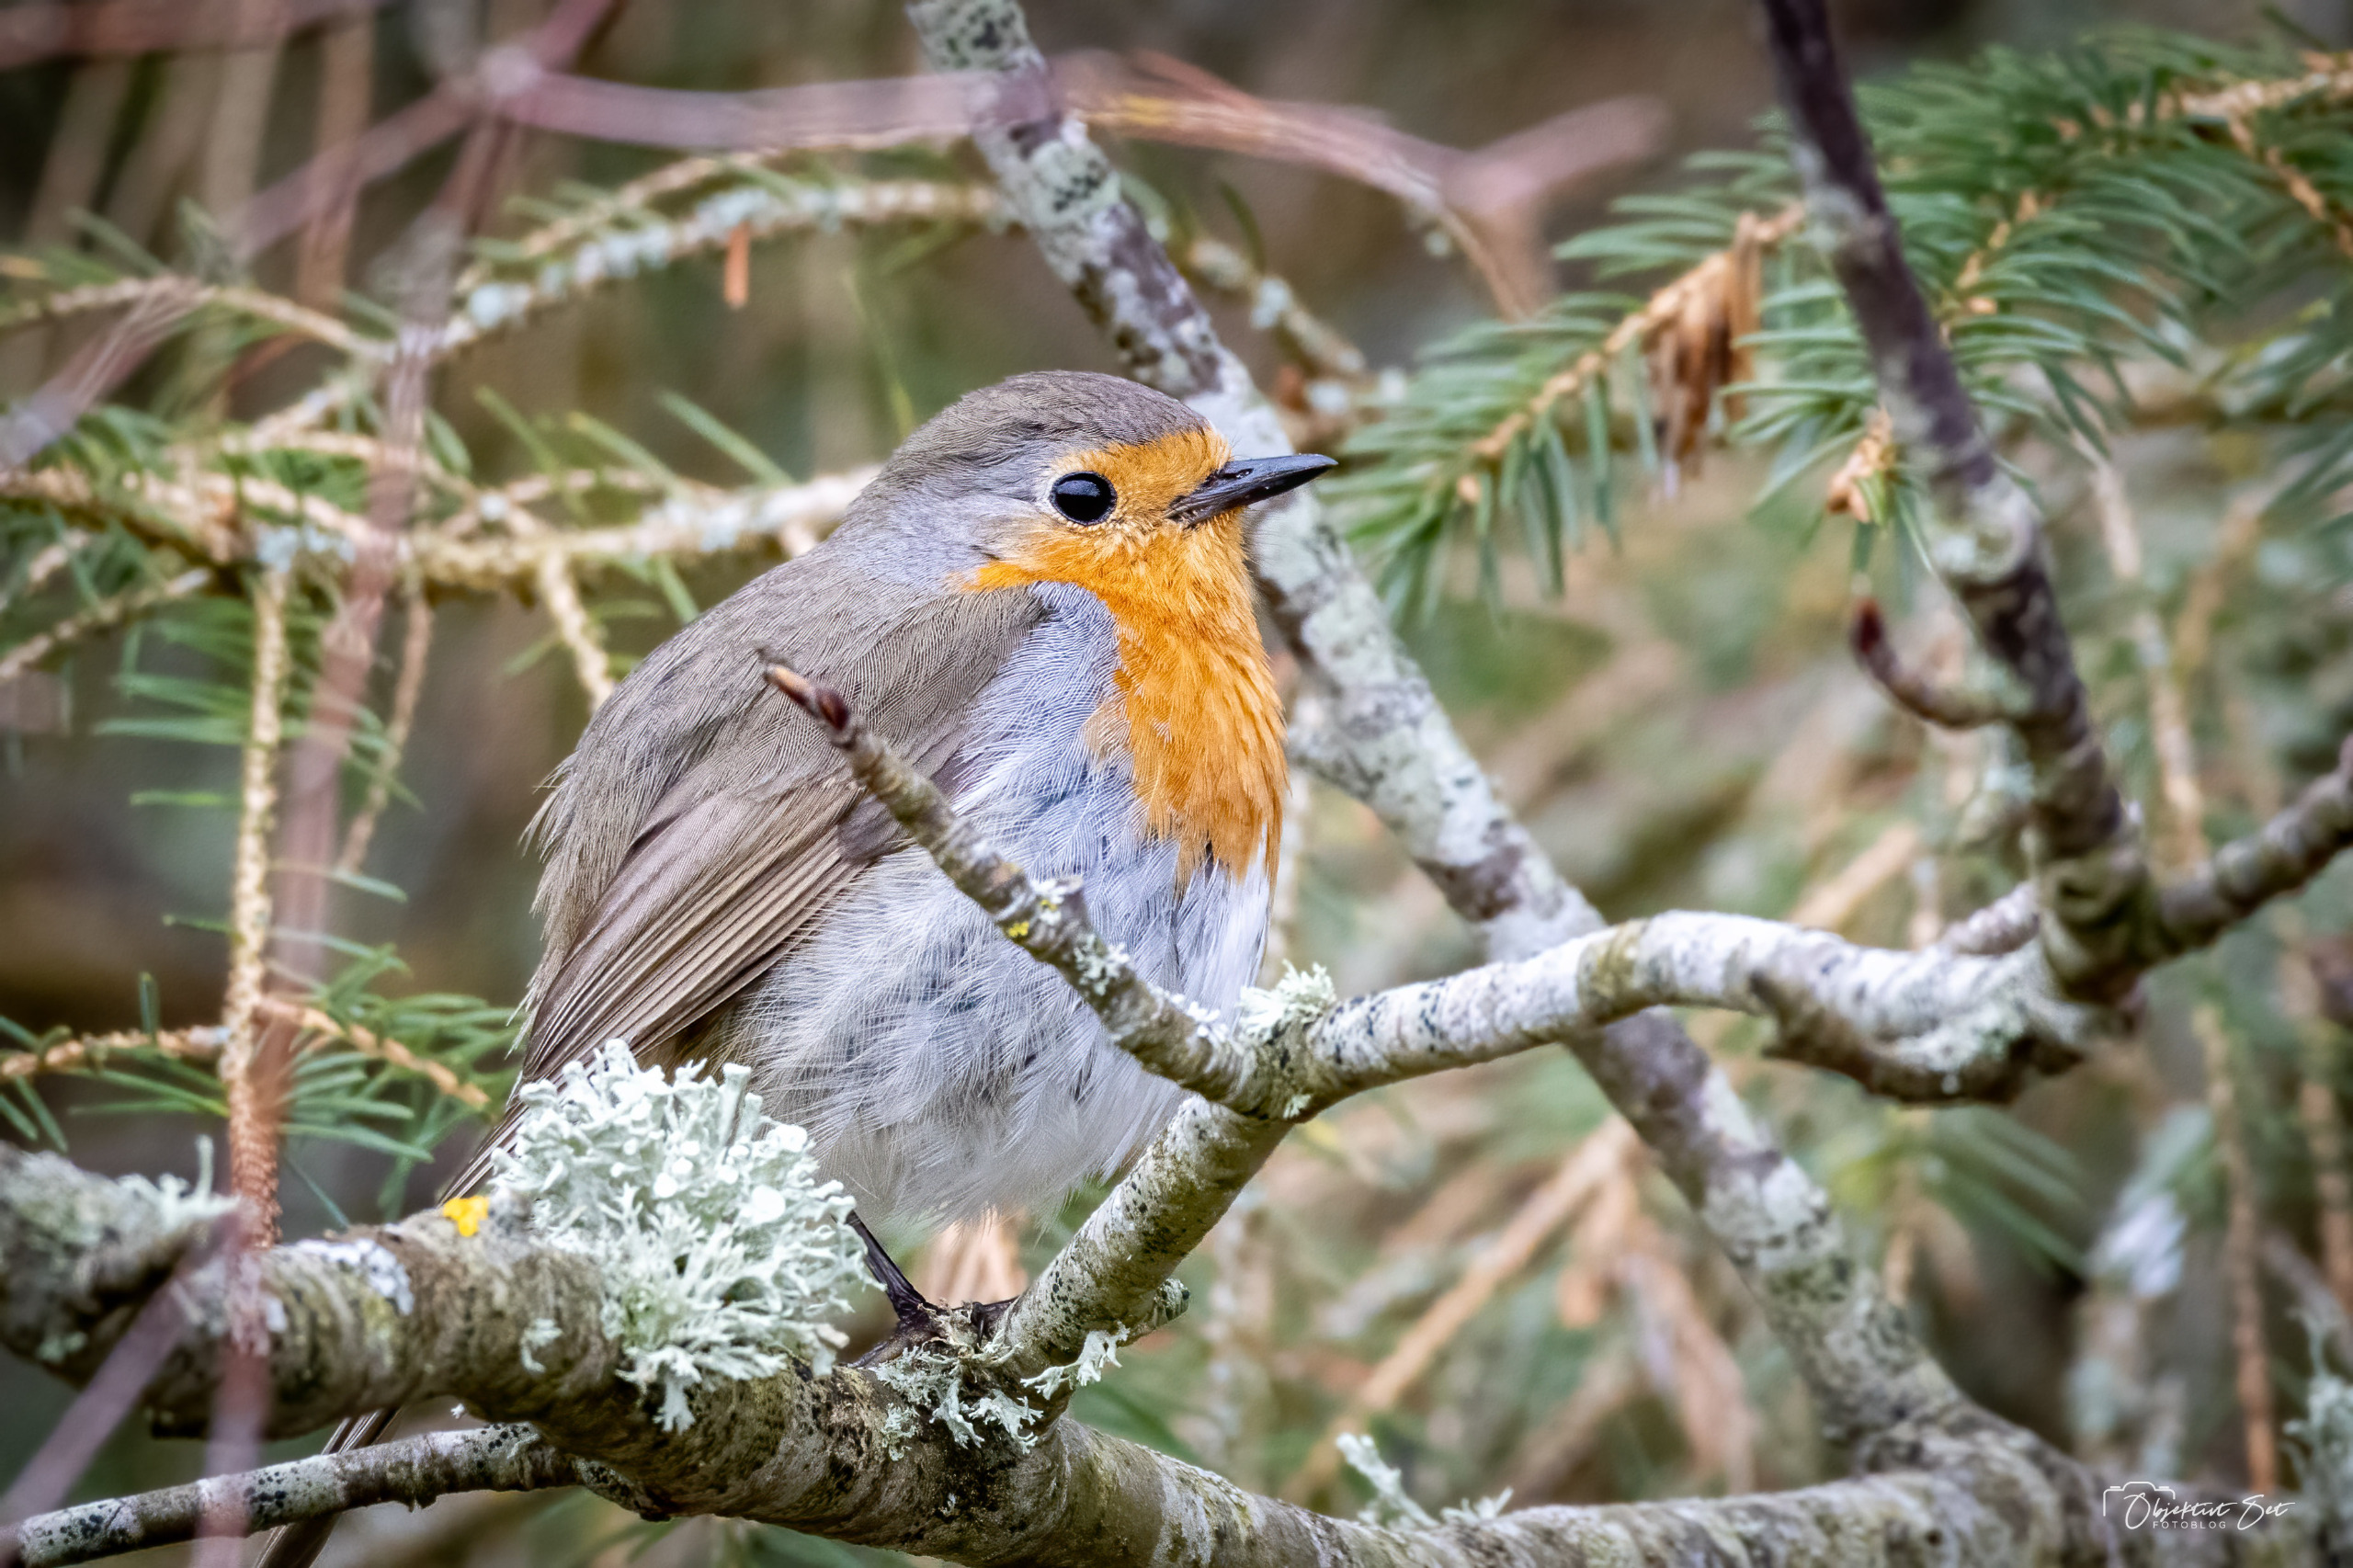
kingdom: Animalia
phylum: Chordata
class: Aves
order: Passeriformes
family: Muscicapidae
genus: Erithacus
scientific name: Erithacus rubecula
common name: Rødhals/rødkælk
